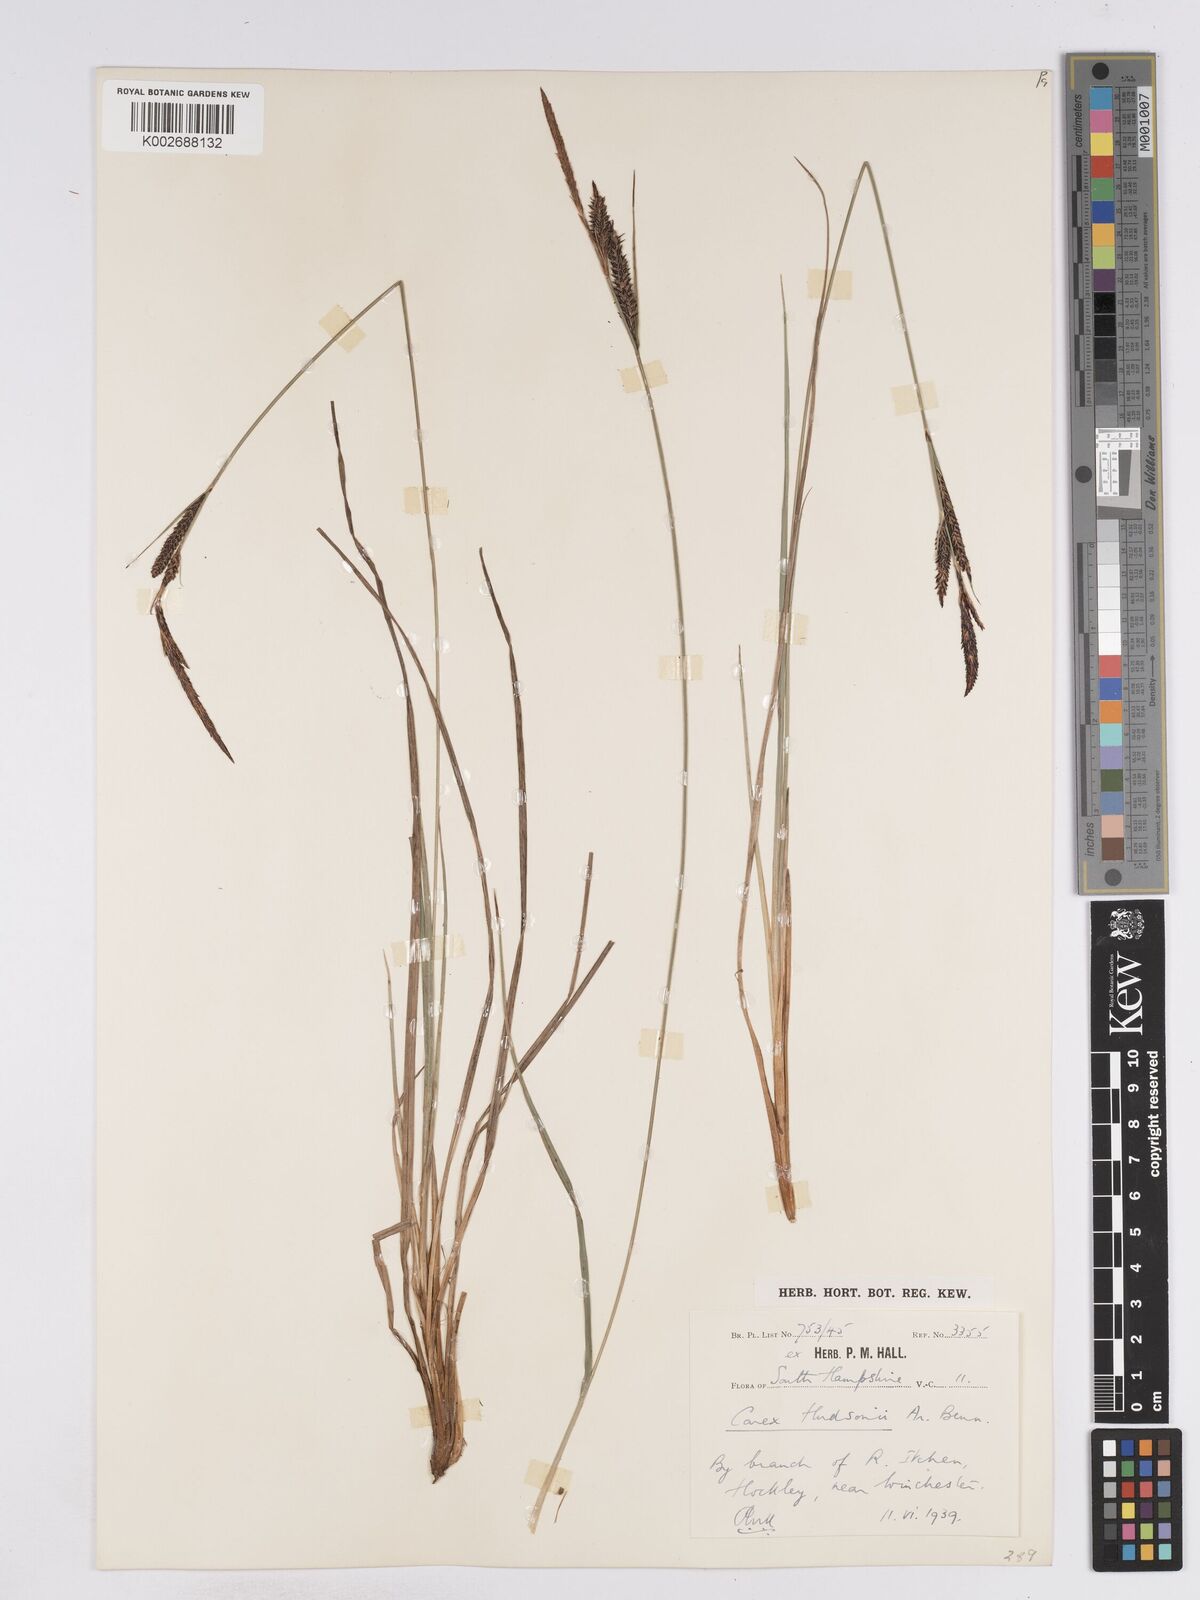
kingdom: Plantae
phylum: Tracheophyta
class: Liliopsida
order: Poales
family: Cyperaceae
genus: Carex
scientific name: Carex elata
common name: Tufted sedge
